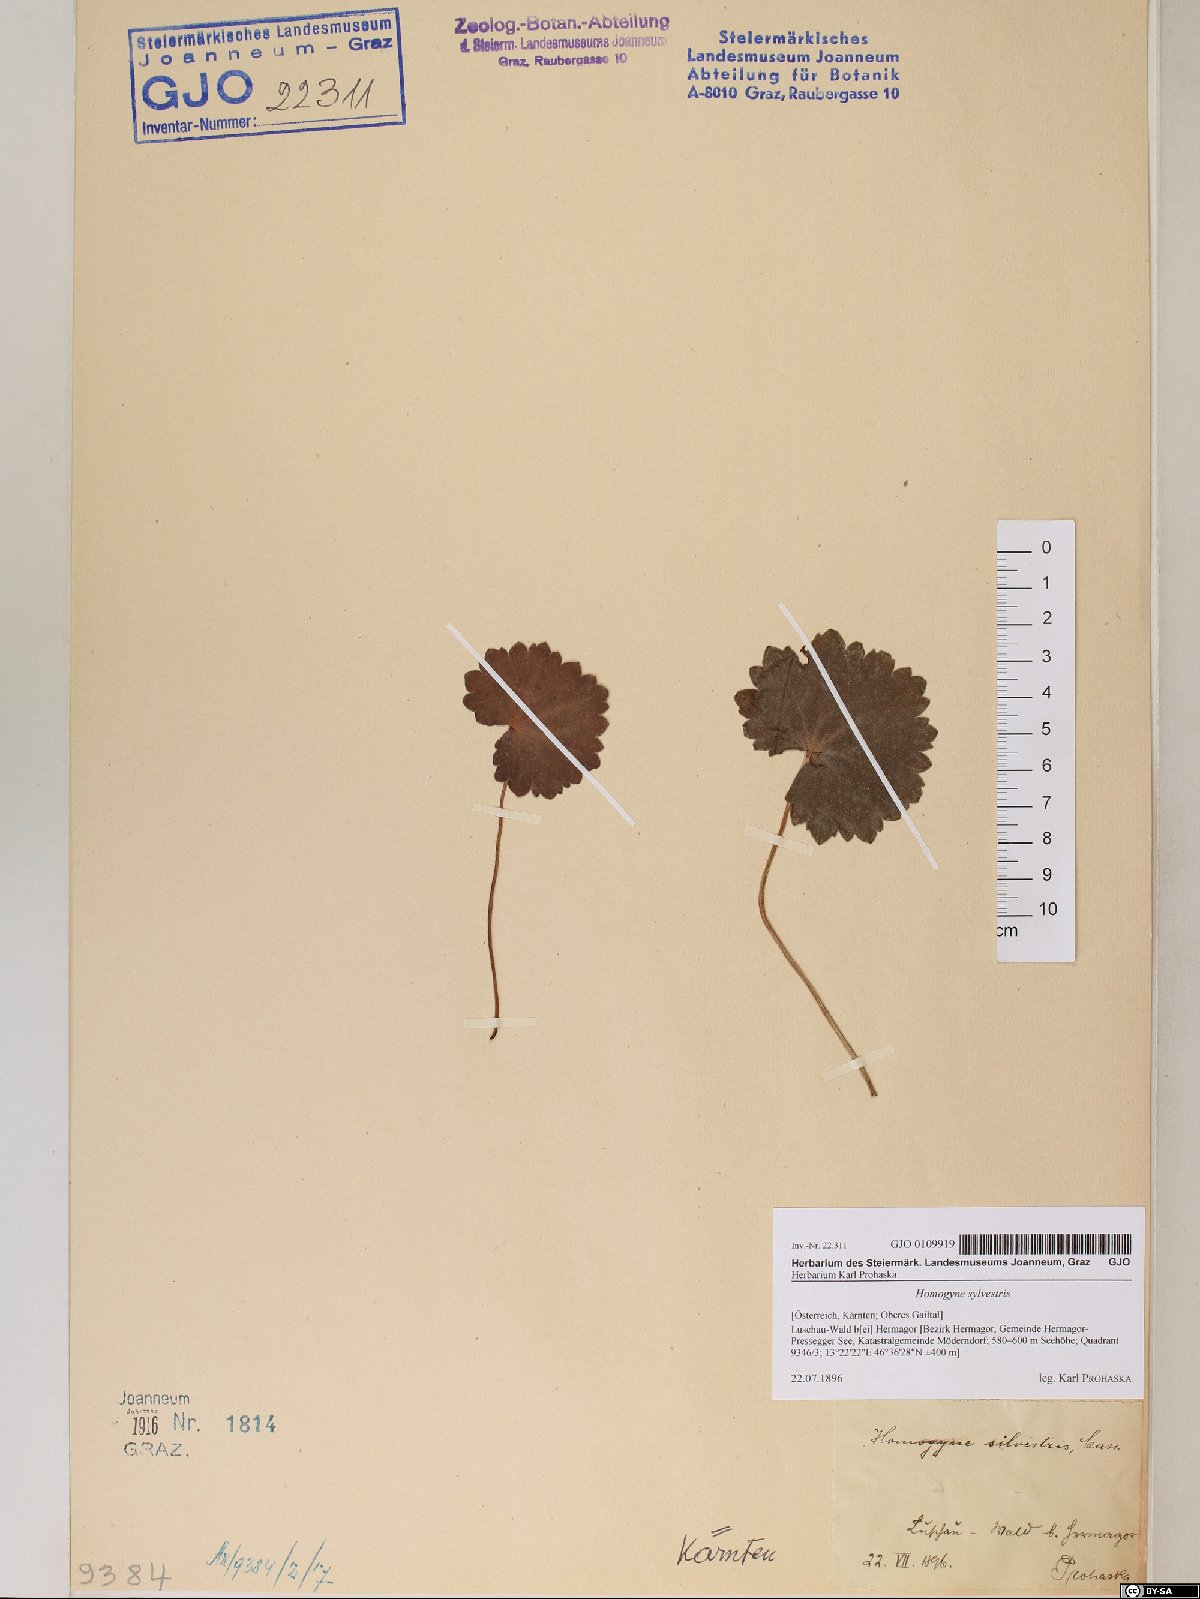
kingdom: Plantae
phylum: Tracheophyta
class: Magnoliopsida
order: Asterales
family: Asteraceae
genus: Homogyne
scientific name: Homogyne sylvestris
